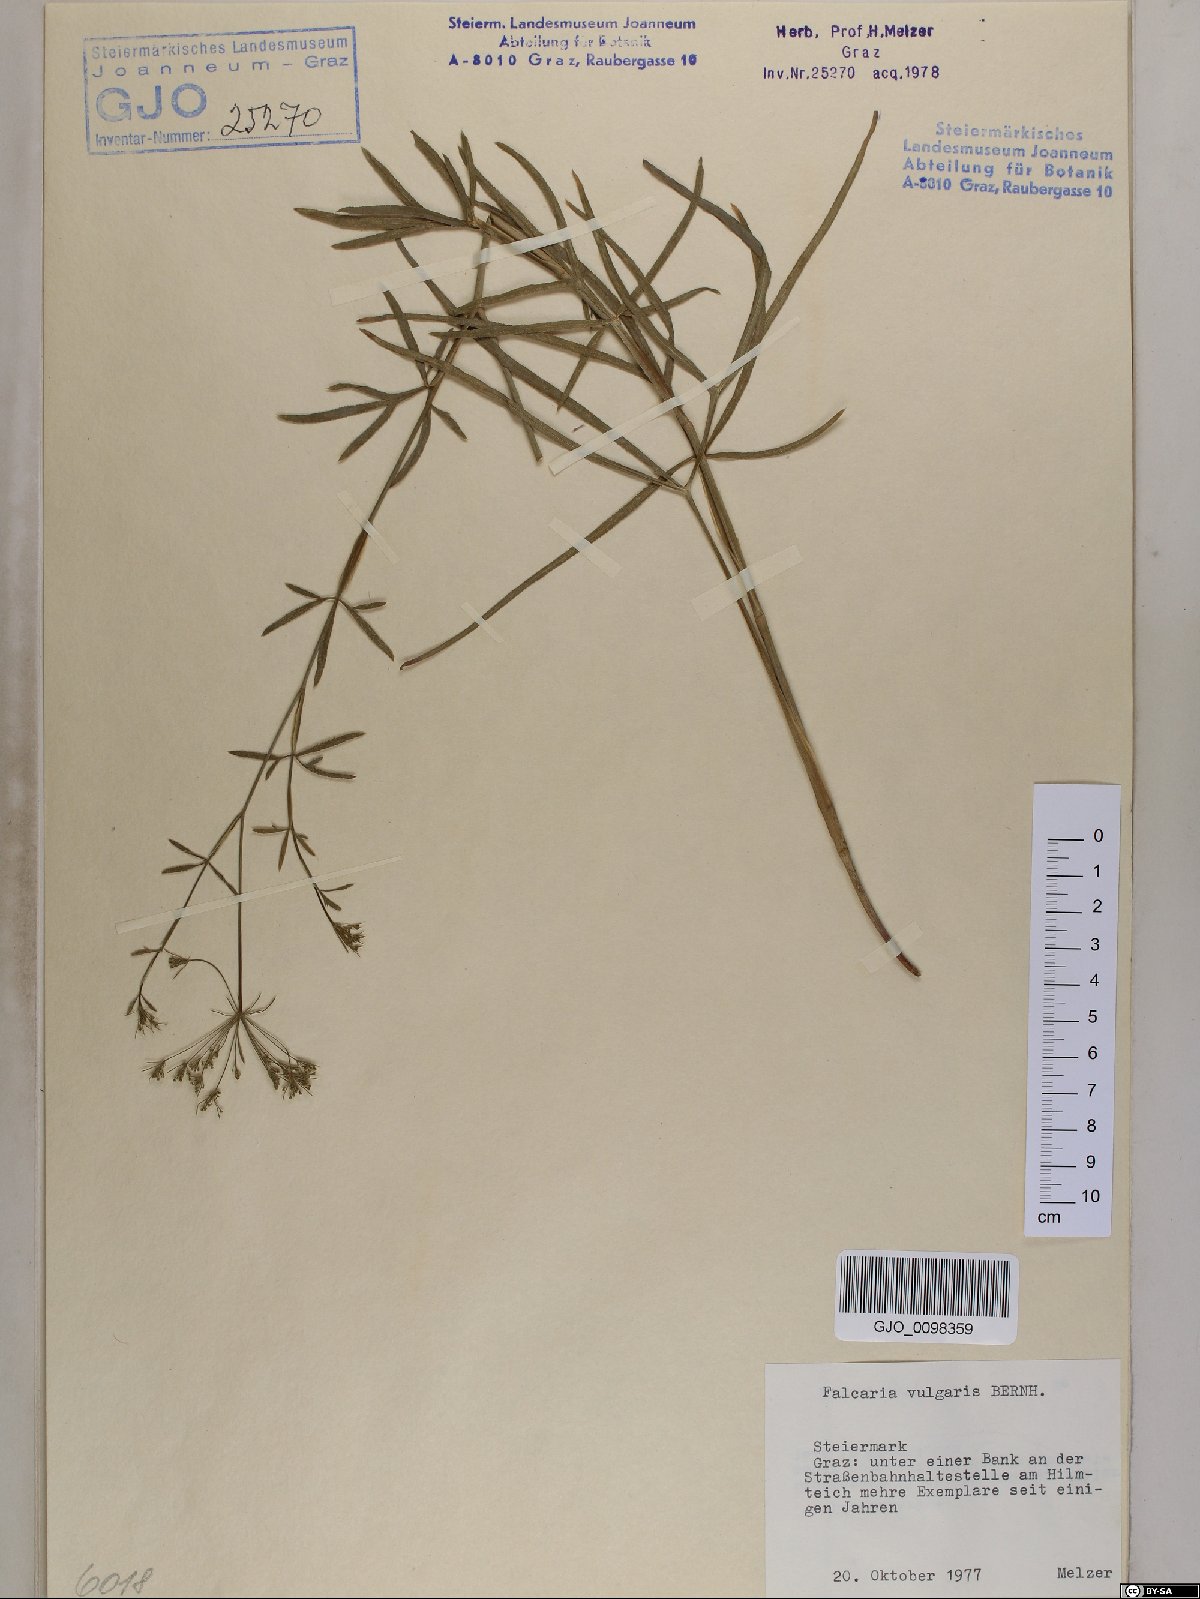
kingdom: Plantae
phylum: Tracheophyta
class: Magnoliopsida
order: Apiales
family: Apiaceae
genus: Falcaria
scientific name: Falcaria vulgaris
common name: Longleaf
